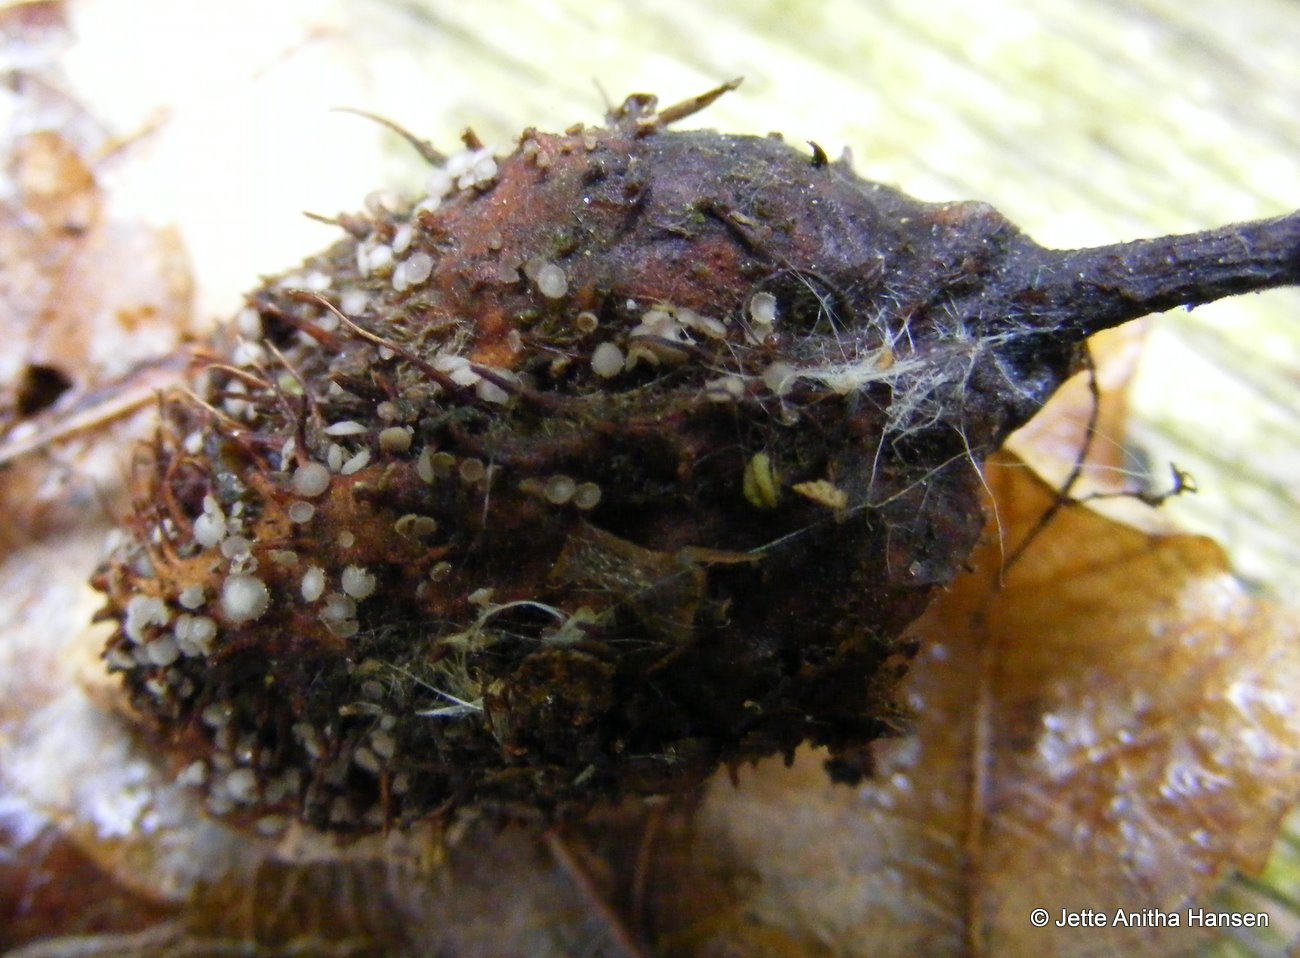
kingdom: Fungi
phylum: Ascomycota
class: Leotiomycetes
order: Helotiales
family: Lachnaceae
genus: Brunnipila
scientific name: Brunnipila fuscescens
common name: bøge-frynseskive
